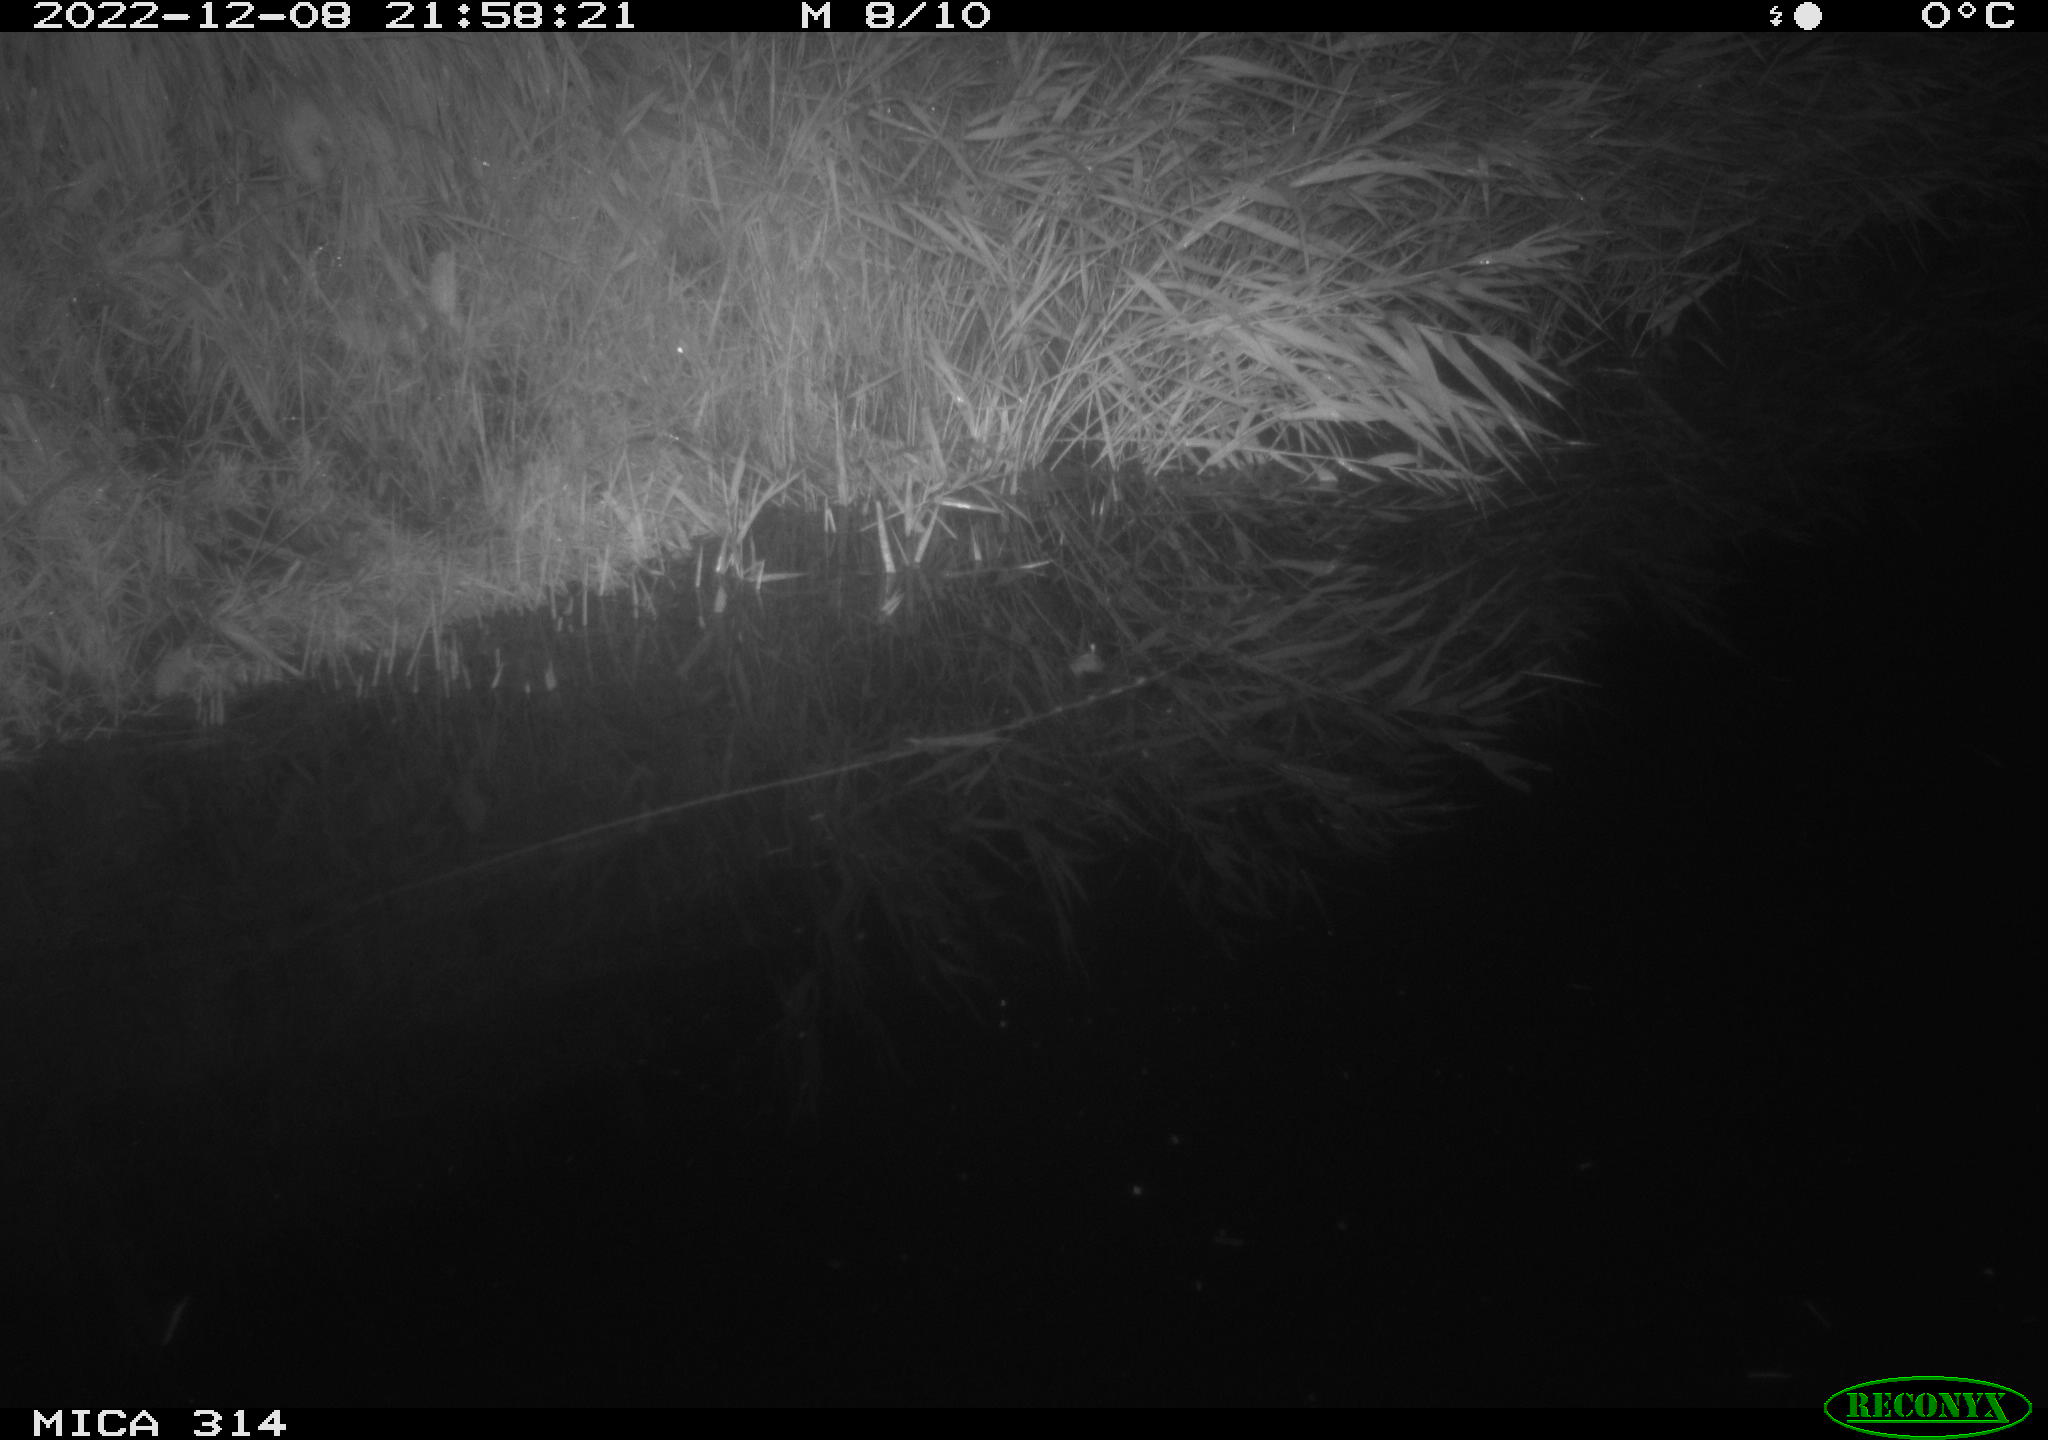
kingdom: Animalia
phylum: Chordata
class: Mammalia
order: Rodentia
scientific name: Rodentia
